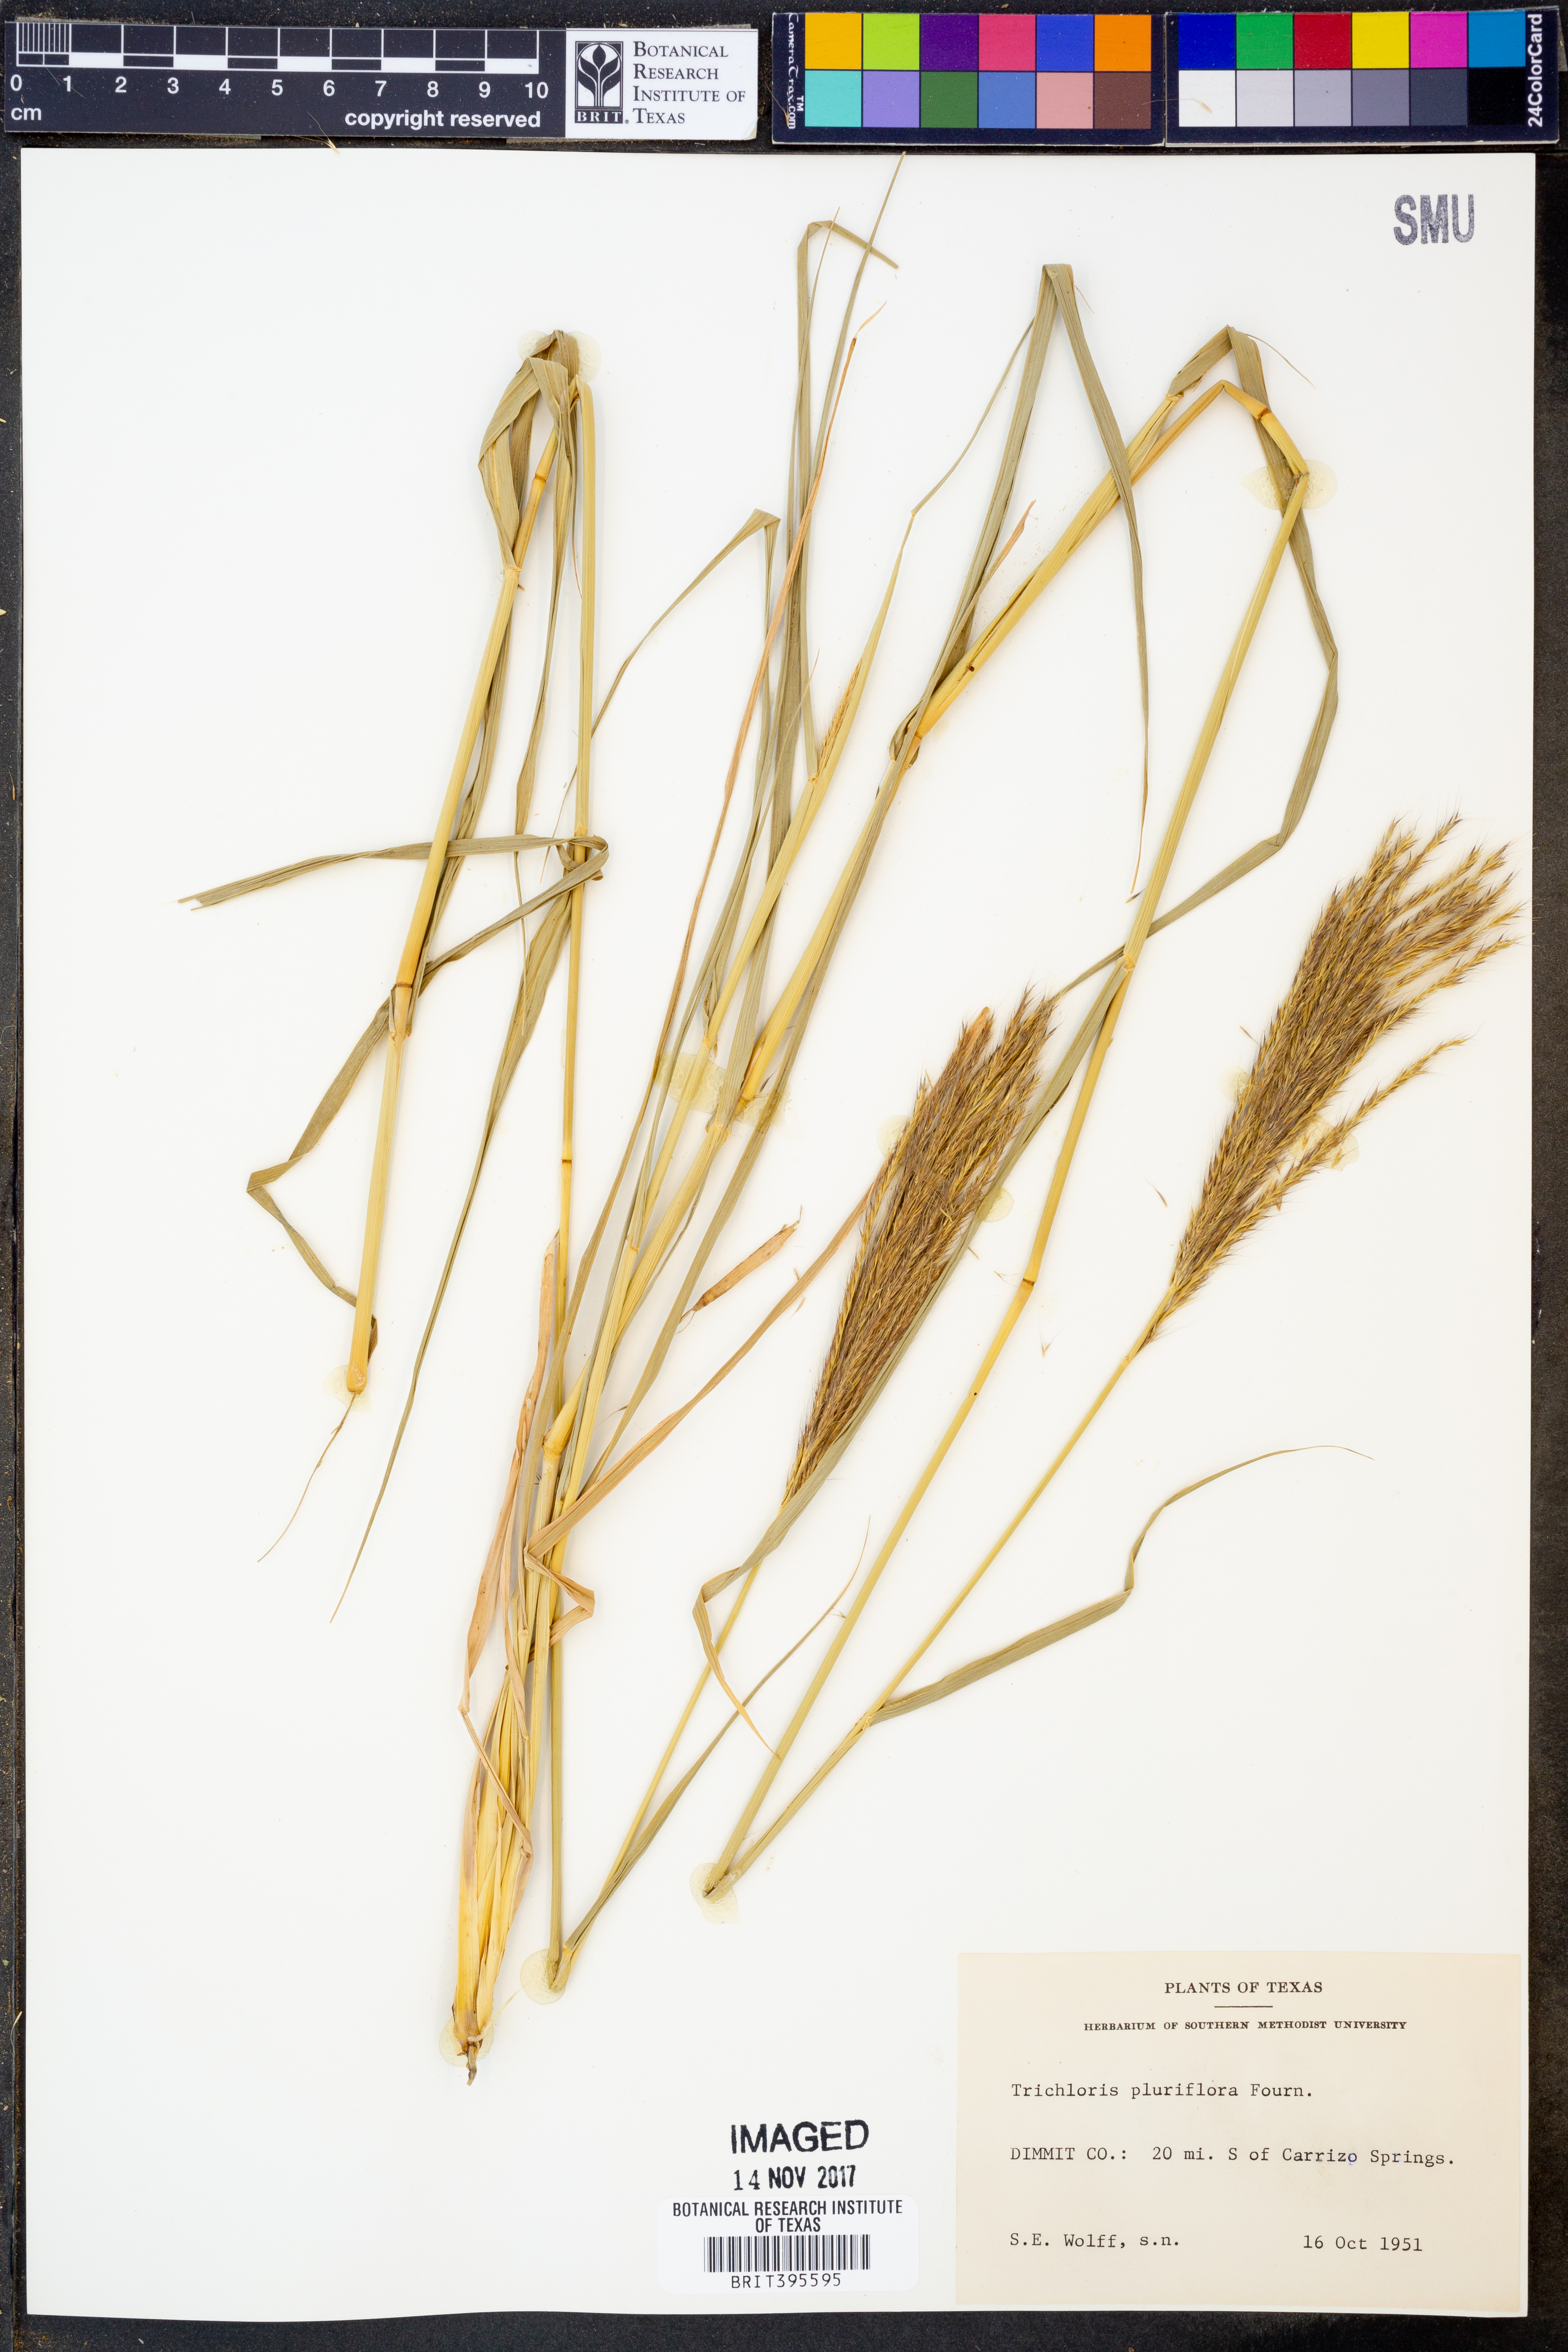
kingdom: Plantae
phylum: Tracheophyta
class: Liliopsida
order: Poales
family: Poaceae
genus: Leptochloa
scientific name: Leptochloa pluriflora
